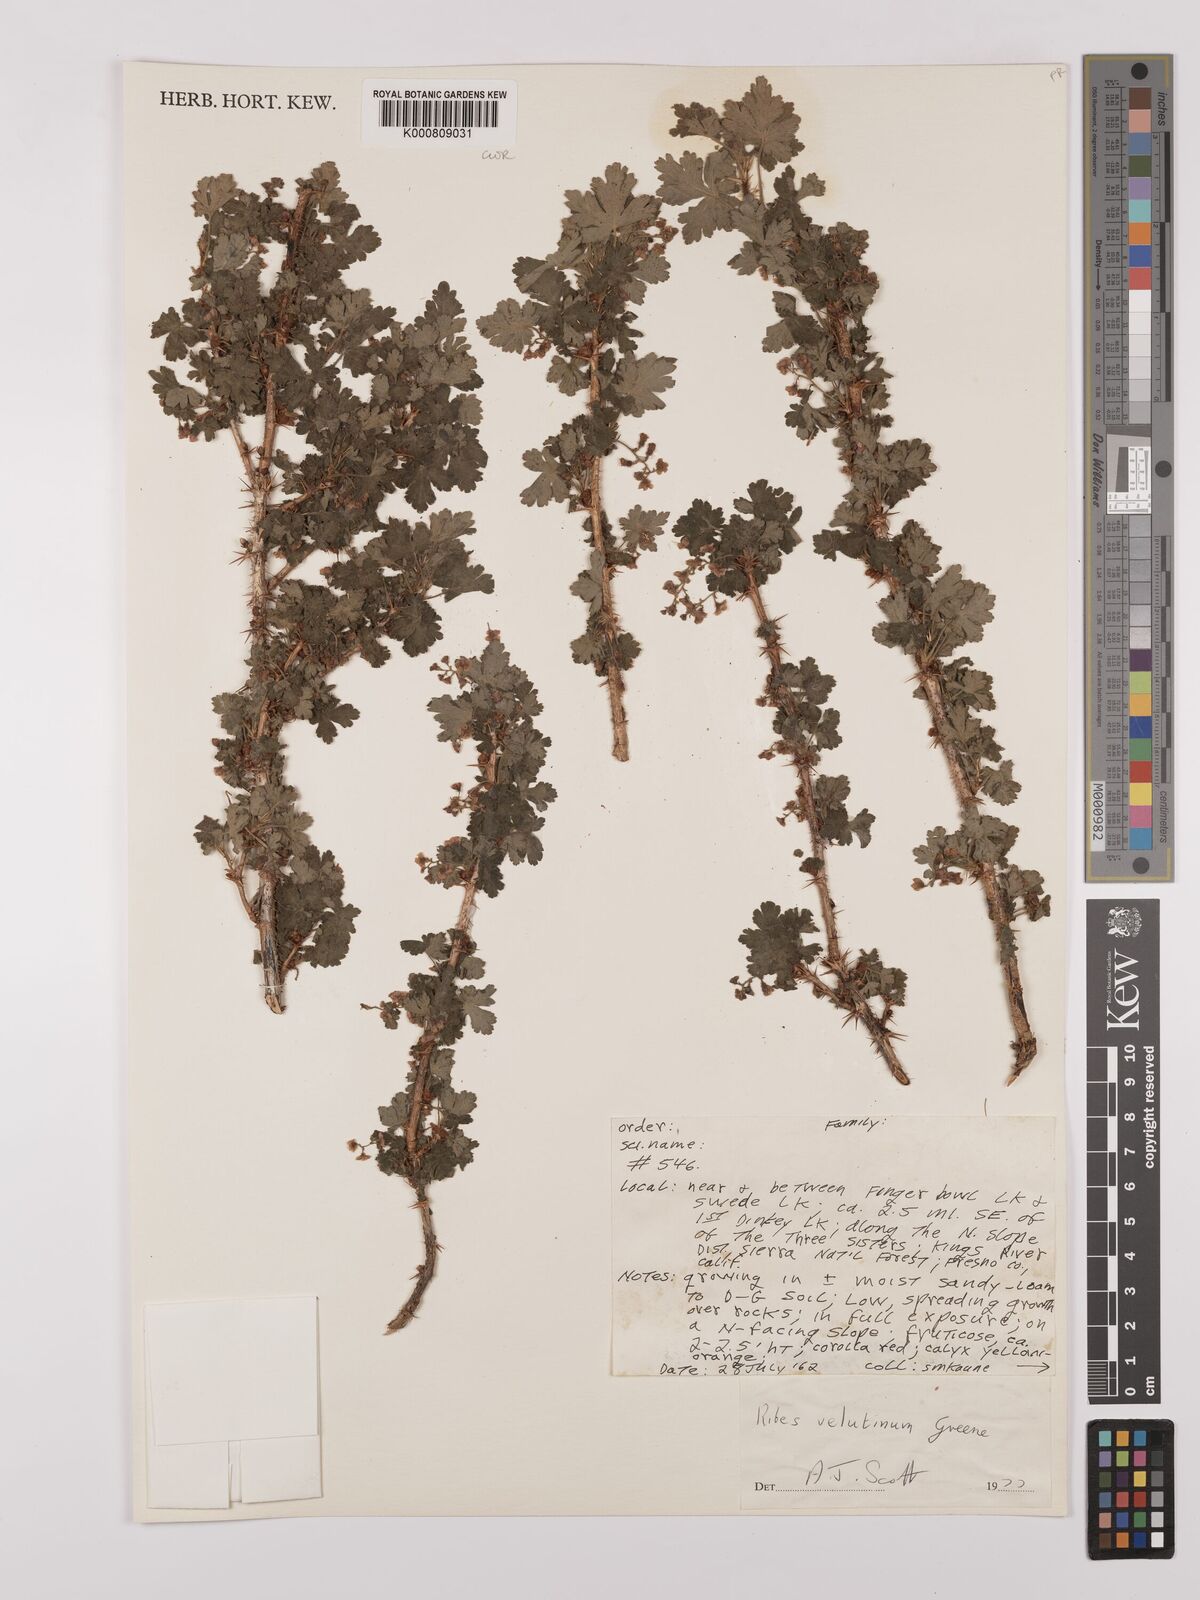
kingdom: Plantae
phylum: Tracheophyta
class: Magnoliopsida
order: Saxifragales
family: Grossulariaceae
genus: Ribes
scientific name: Ribes velutinum
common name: Desert gooseberry
